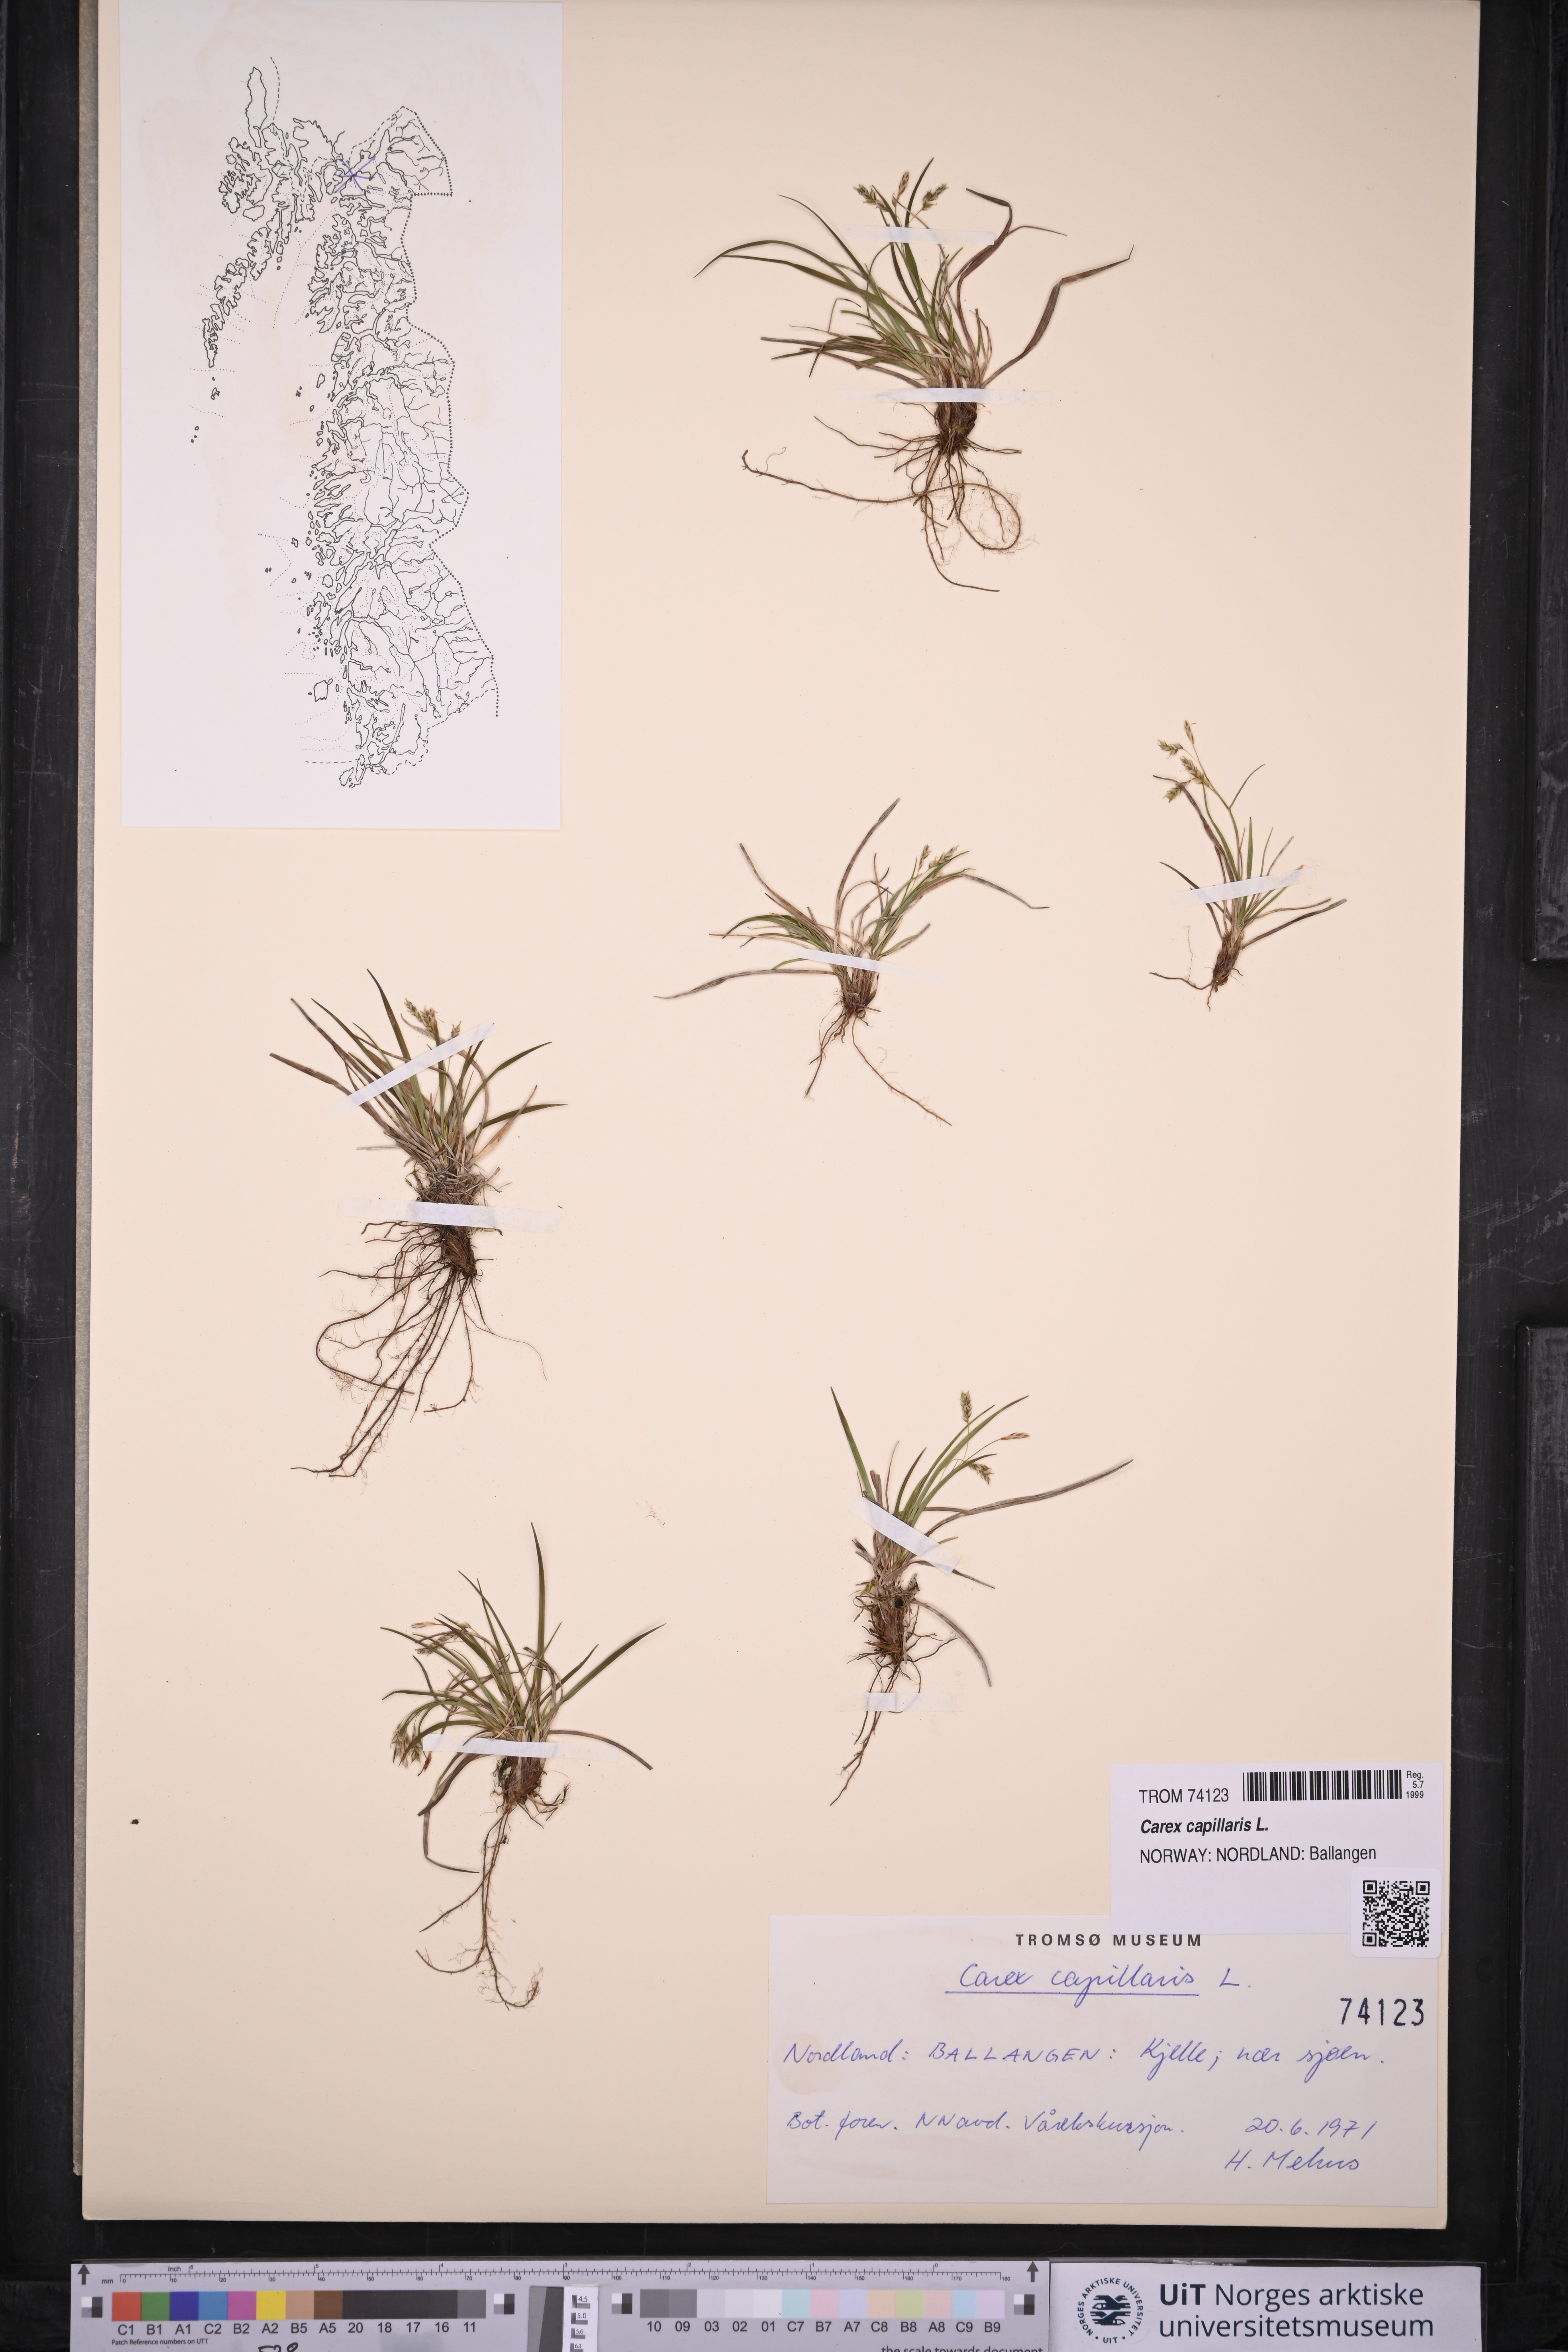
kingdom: Plantae
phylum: Tracheophyta
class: Liliopsida
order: Poales
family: Cyperaceae
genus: Carex
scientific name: Carex capillaris
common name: Hair sedge
